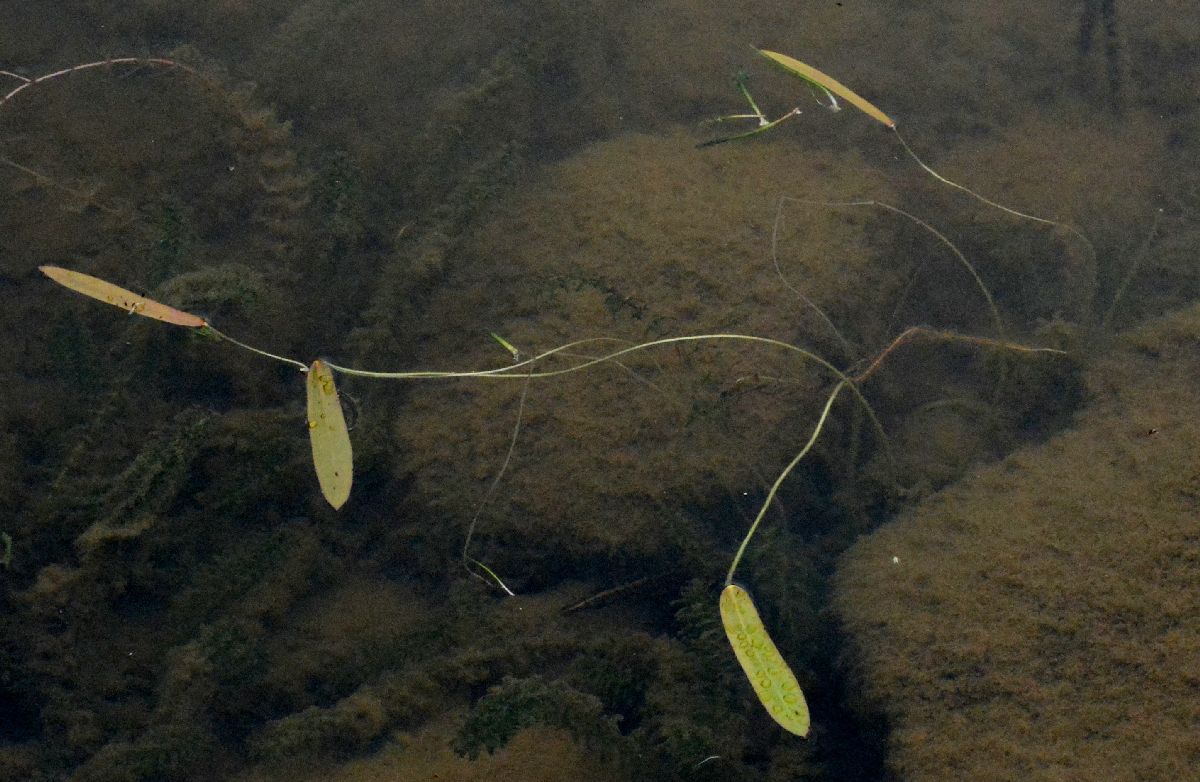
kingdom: Plantae
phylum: Tracheophyta
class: Liliopsida
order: Alismatales
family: Alismataceae
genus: Sagittaria
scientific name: Sagittaria natans
